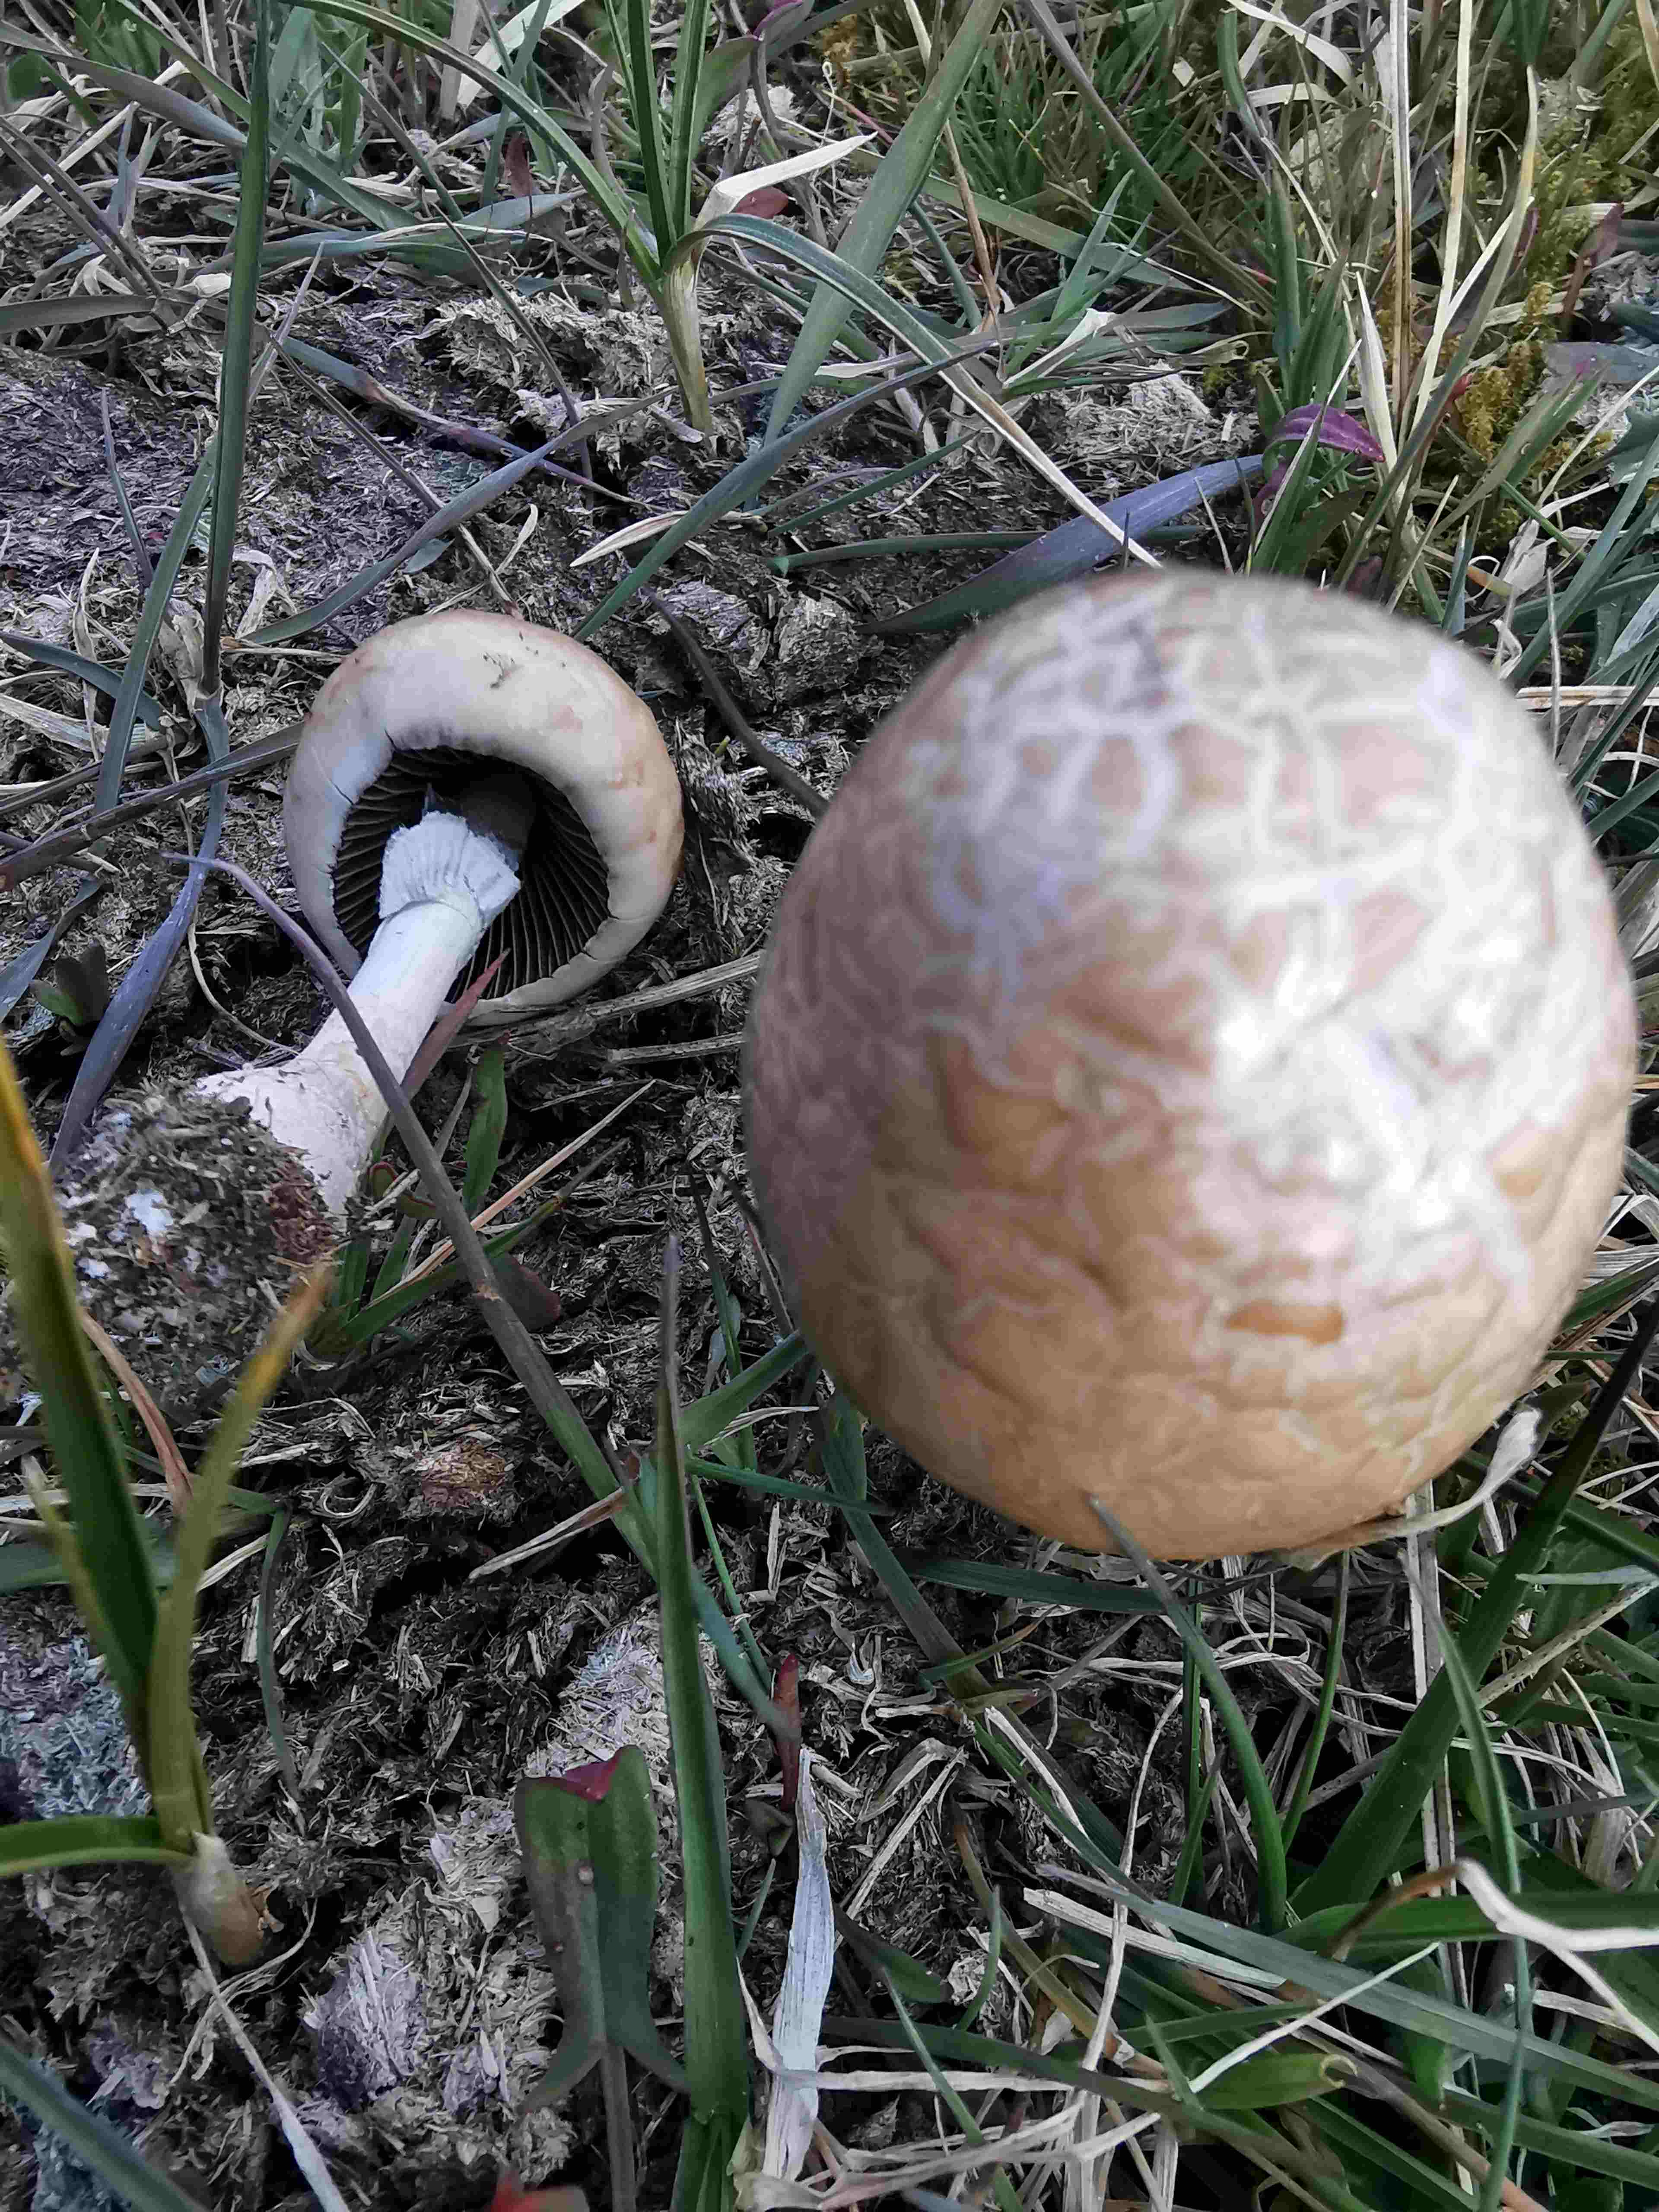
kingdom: Fungi
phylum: Basidiomycota
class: Agaricomycetes
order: Agaricales
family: Bolbitiaceae
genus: Panaeolus
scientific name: Panaeolus semiovatus
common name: ring-glanshat
